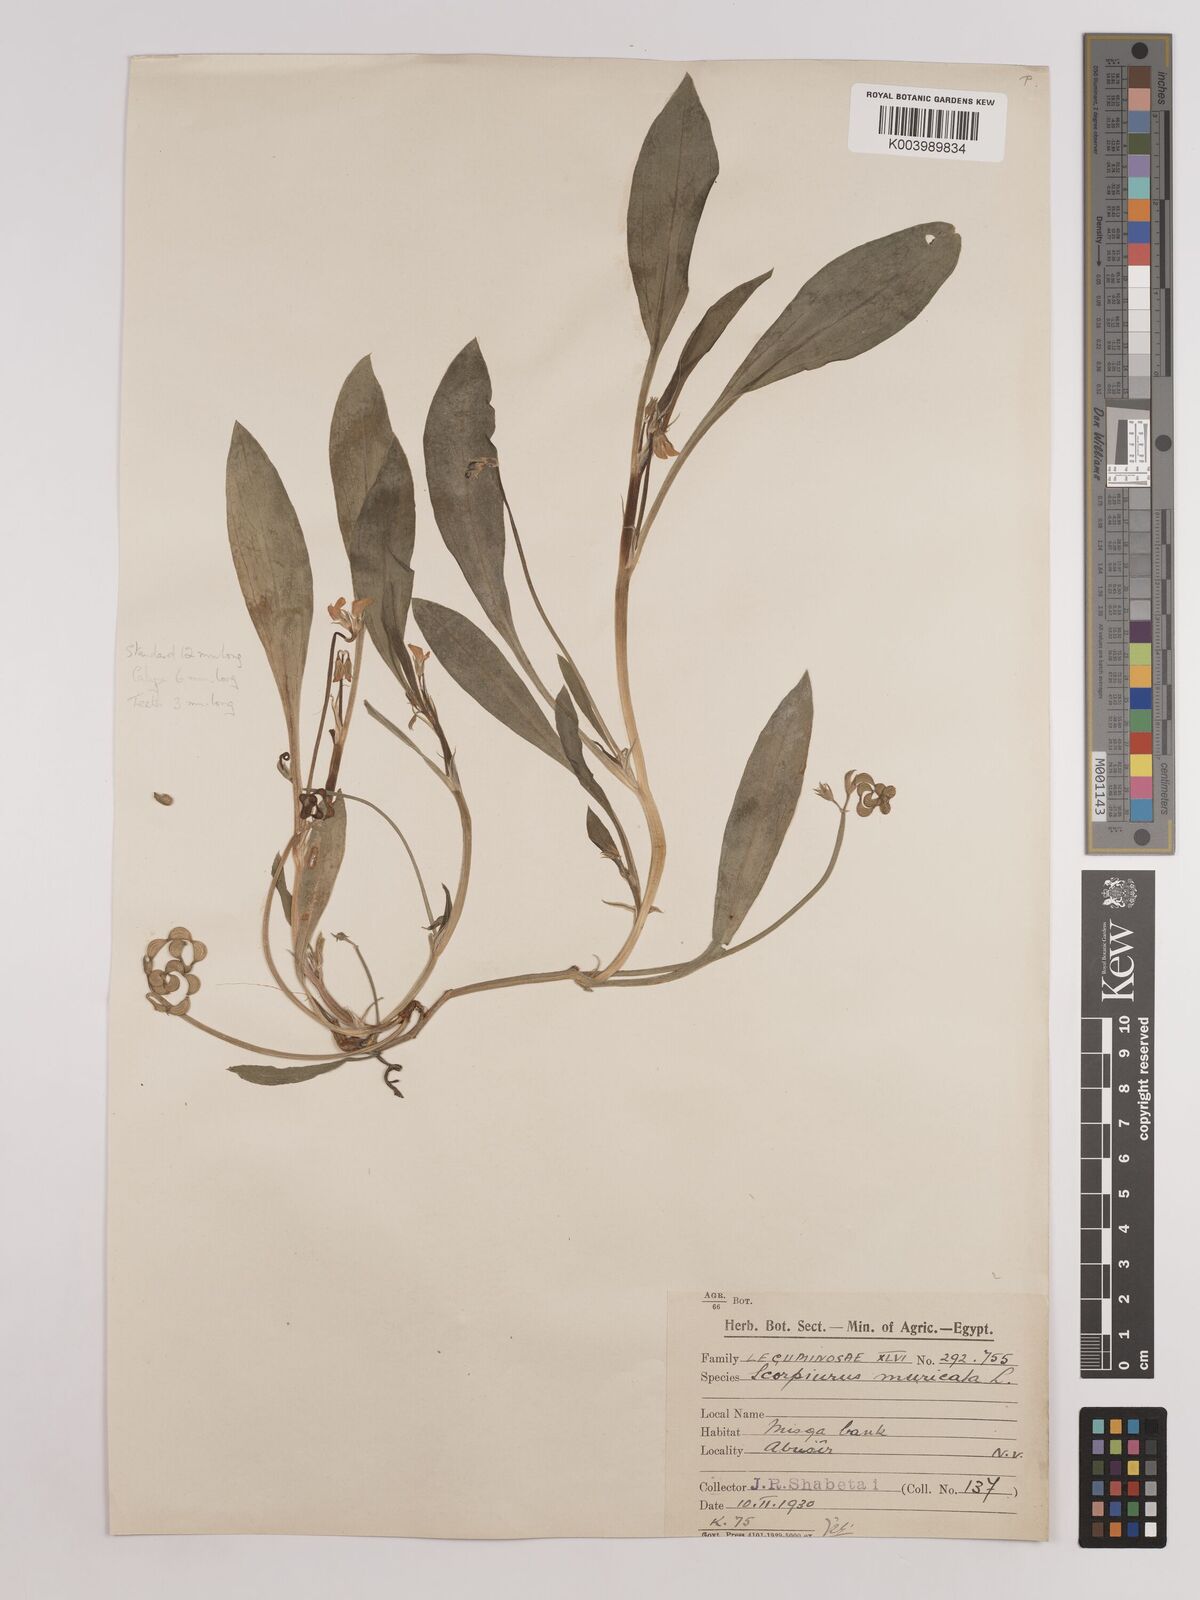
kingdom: Plantae
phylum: Tracheophyta
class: Magnoliopsida
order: Fabales
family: Fabaceae
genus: Scorpiurus
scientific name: Scorpiurus muricatus
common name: Caterpillar-plant
